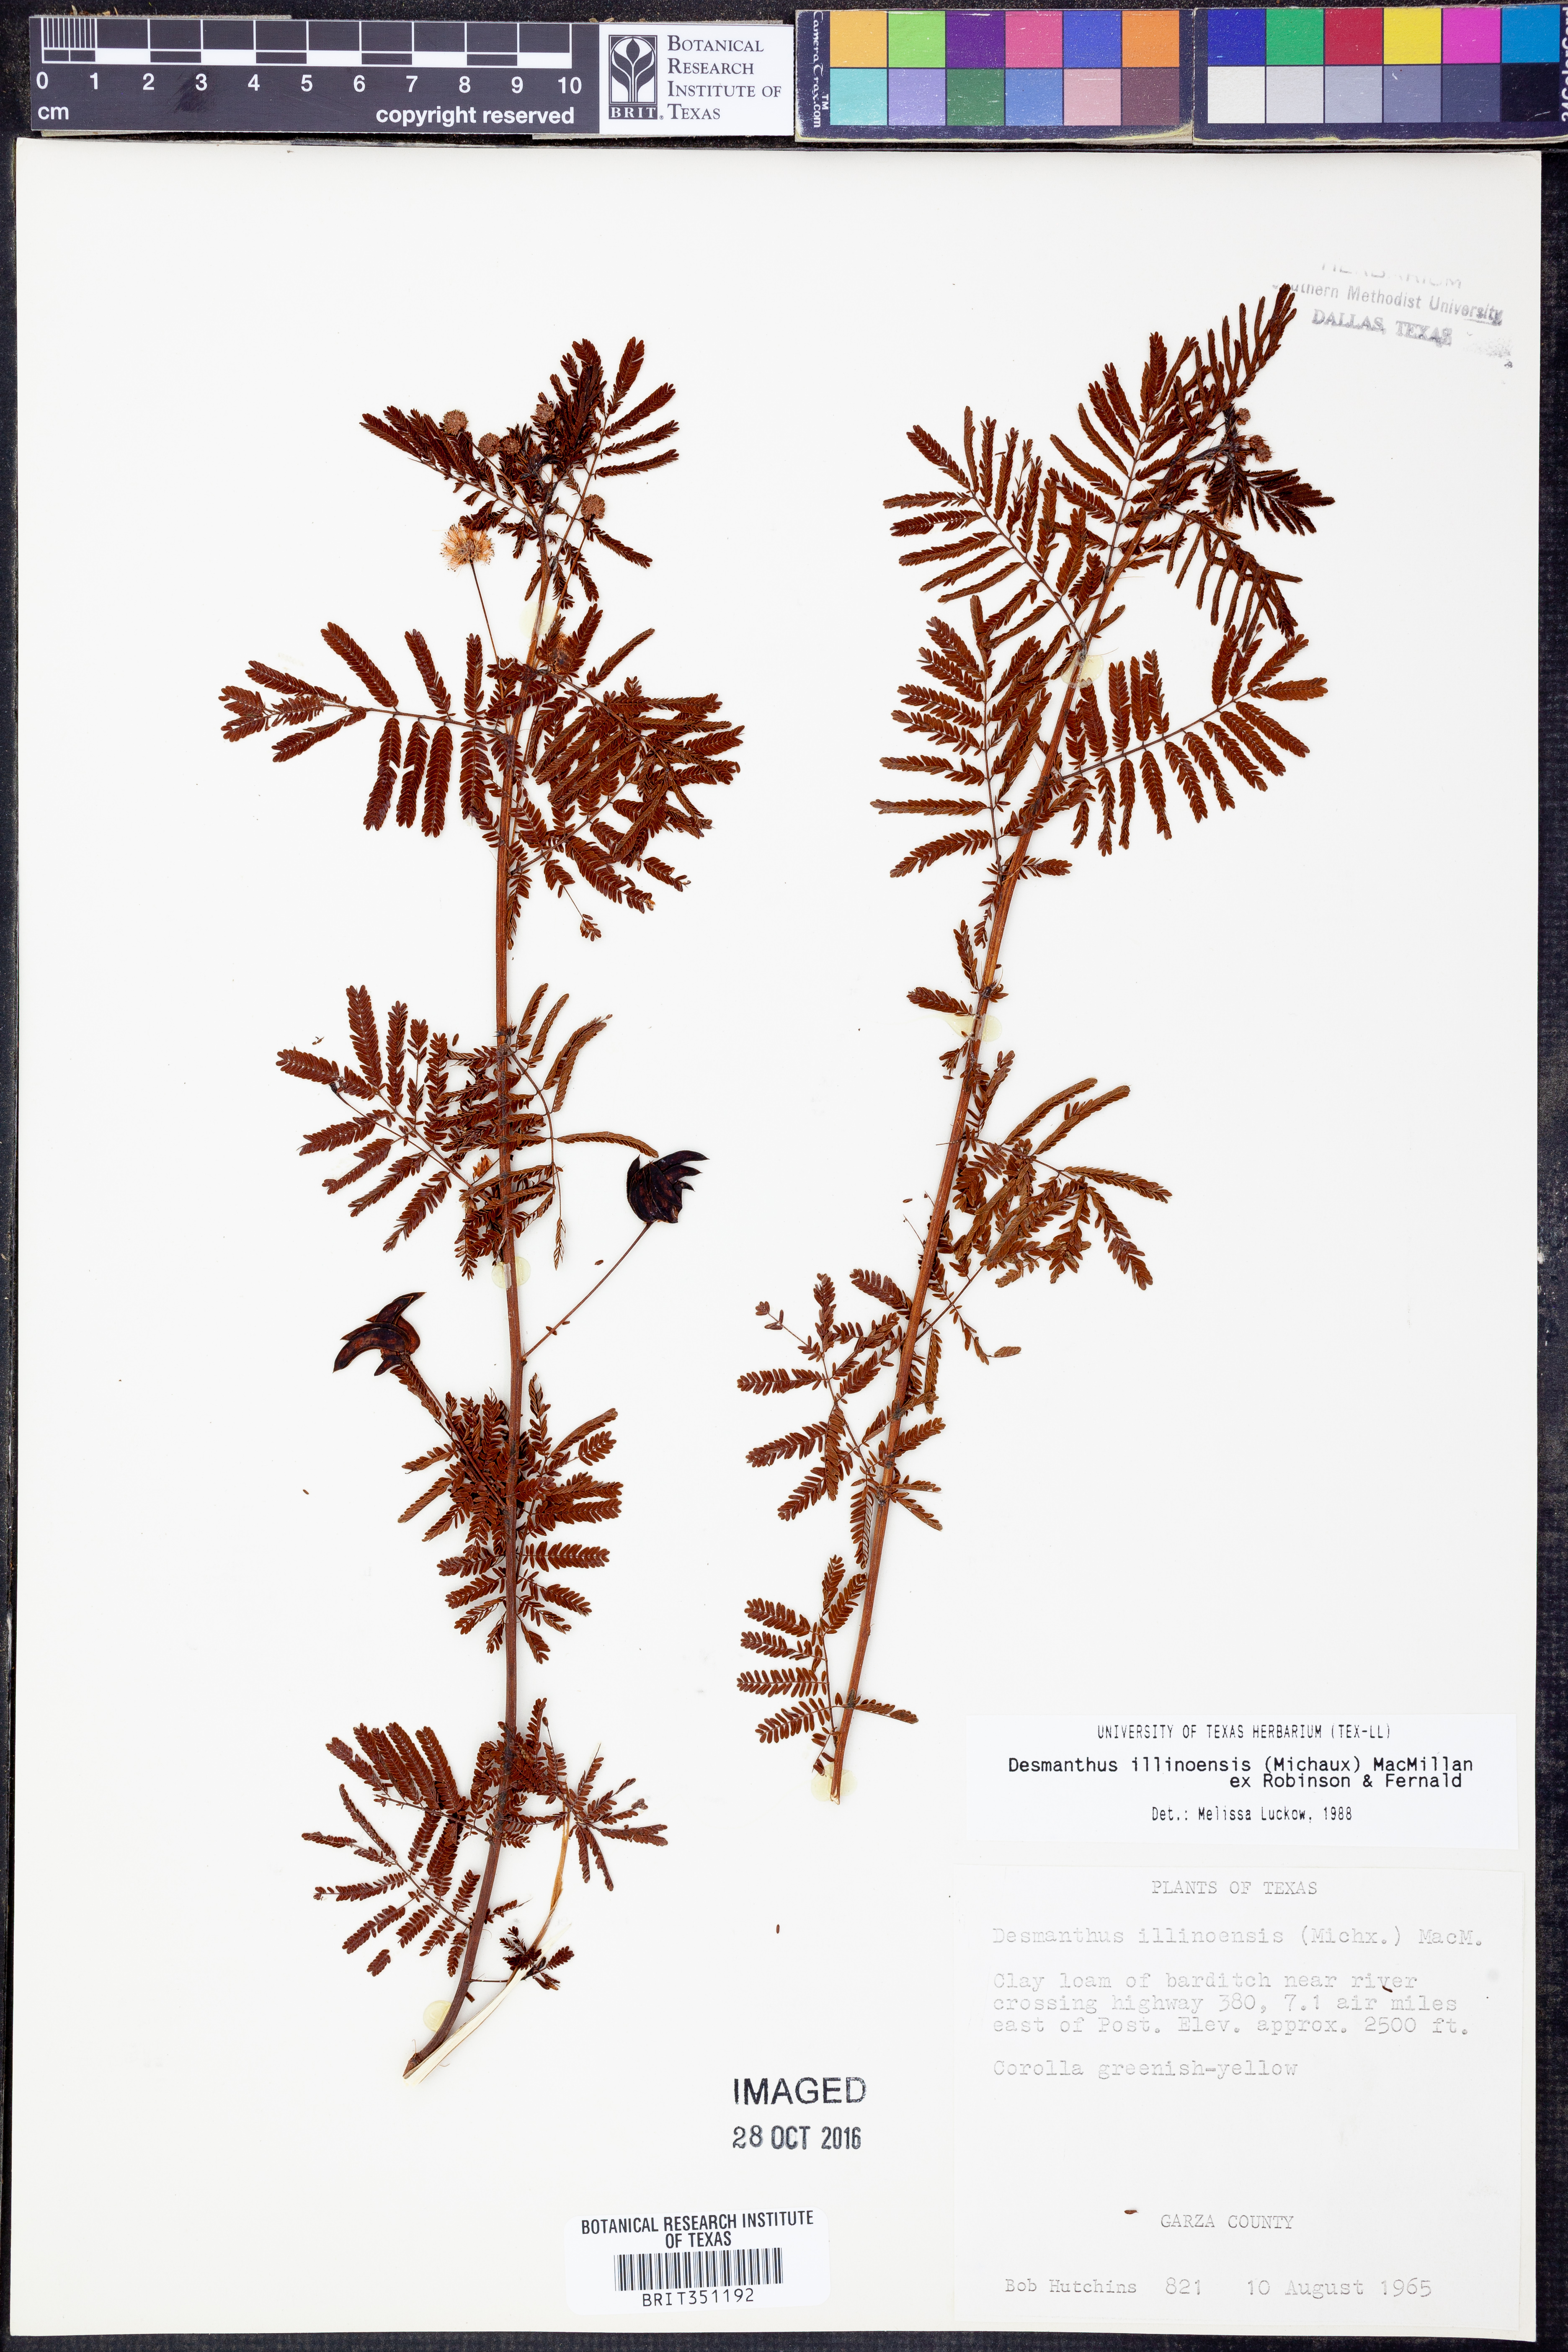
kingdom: Plantae
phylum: Tracheophyta
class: Magnoliopsida
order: Fabales
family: Fabaceae
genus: Desmanthus
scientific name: Desmanthus illinoensis
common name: Illinois bundle-flower
